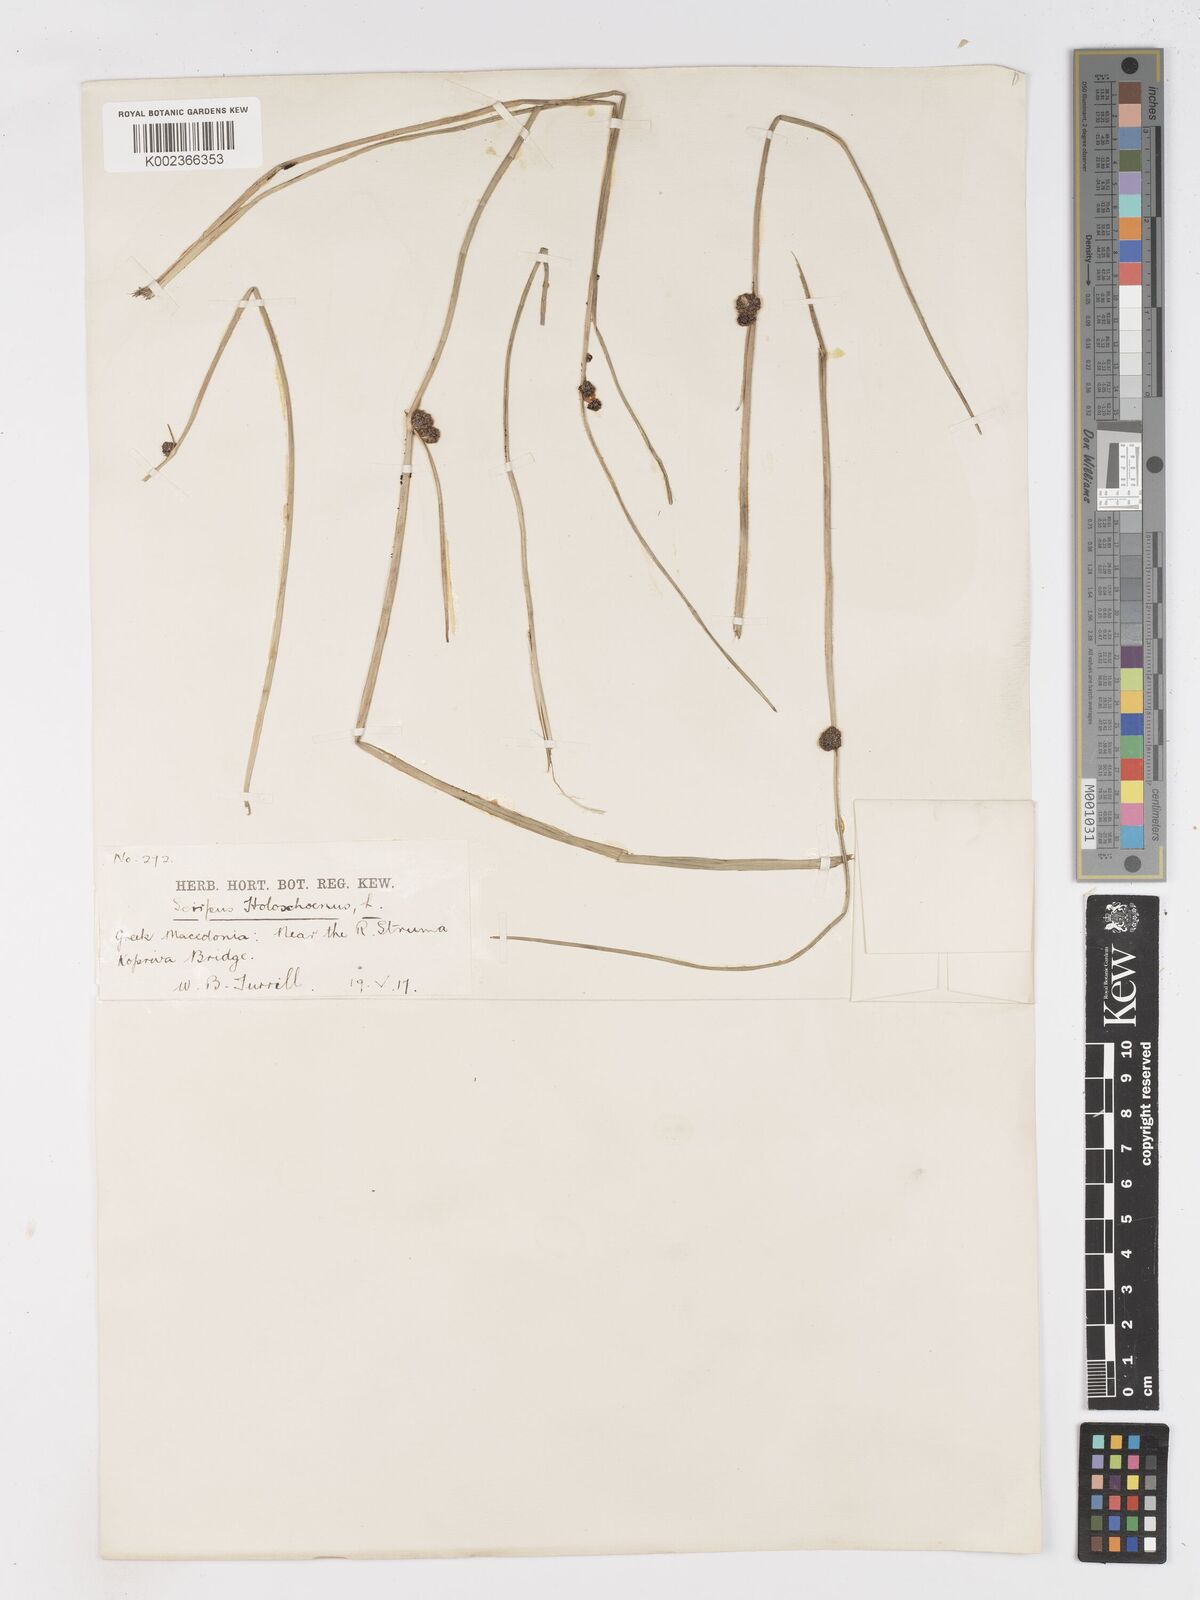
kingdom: Plantae
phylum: Tracheophyta
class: Liliopsida
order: Poales
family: Cyperaceae
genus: Scirpoides
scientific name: Scirpoides holoschoenus
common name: Round-headed club-rush
